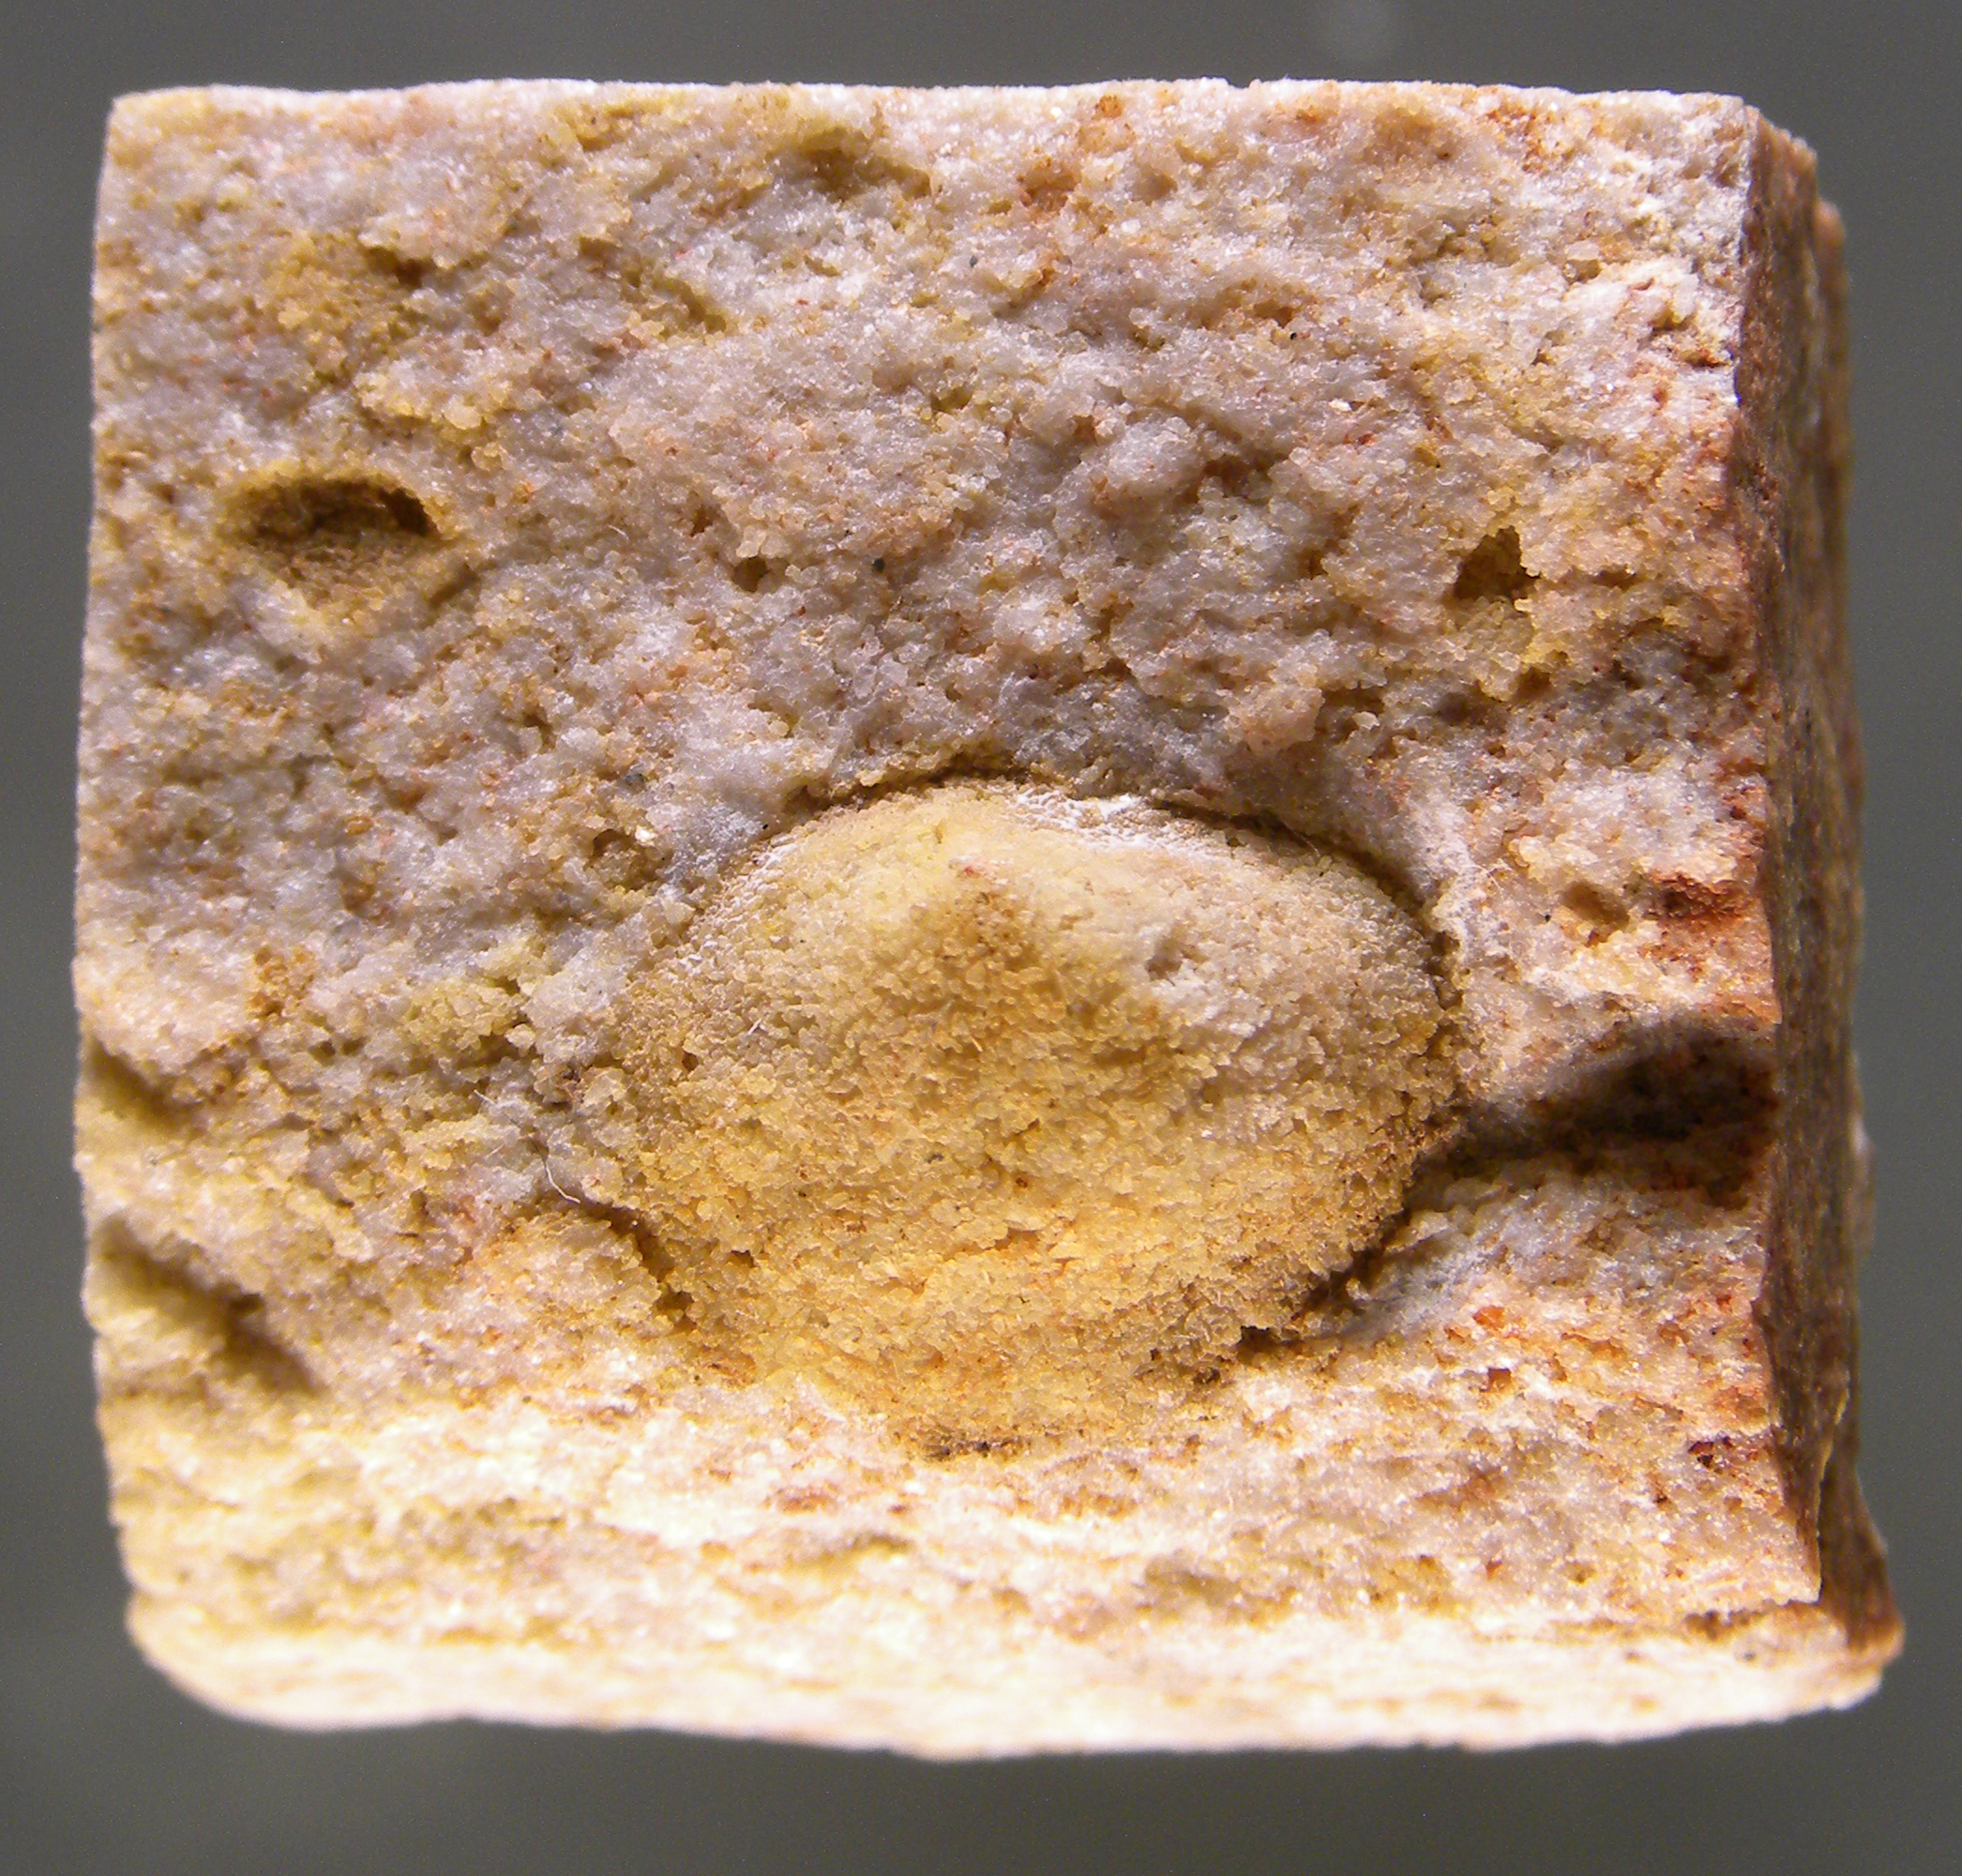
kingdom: Animalia
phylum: Brachiopoda
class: Craniata
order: Craniida
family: Craniidae
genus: Petrocrania
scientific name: Petrocrania
